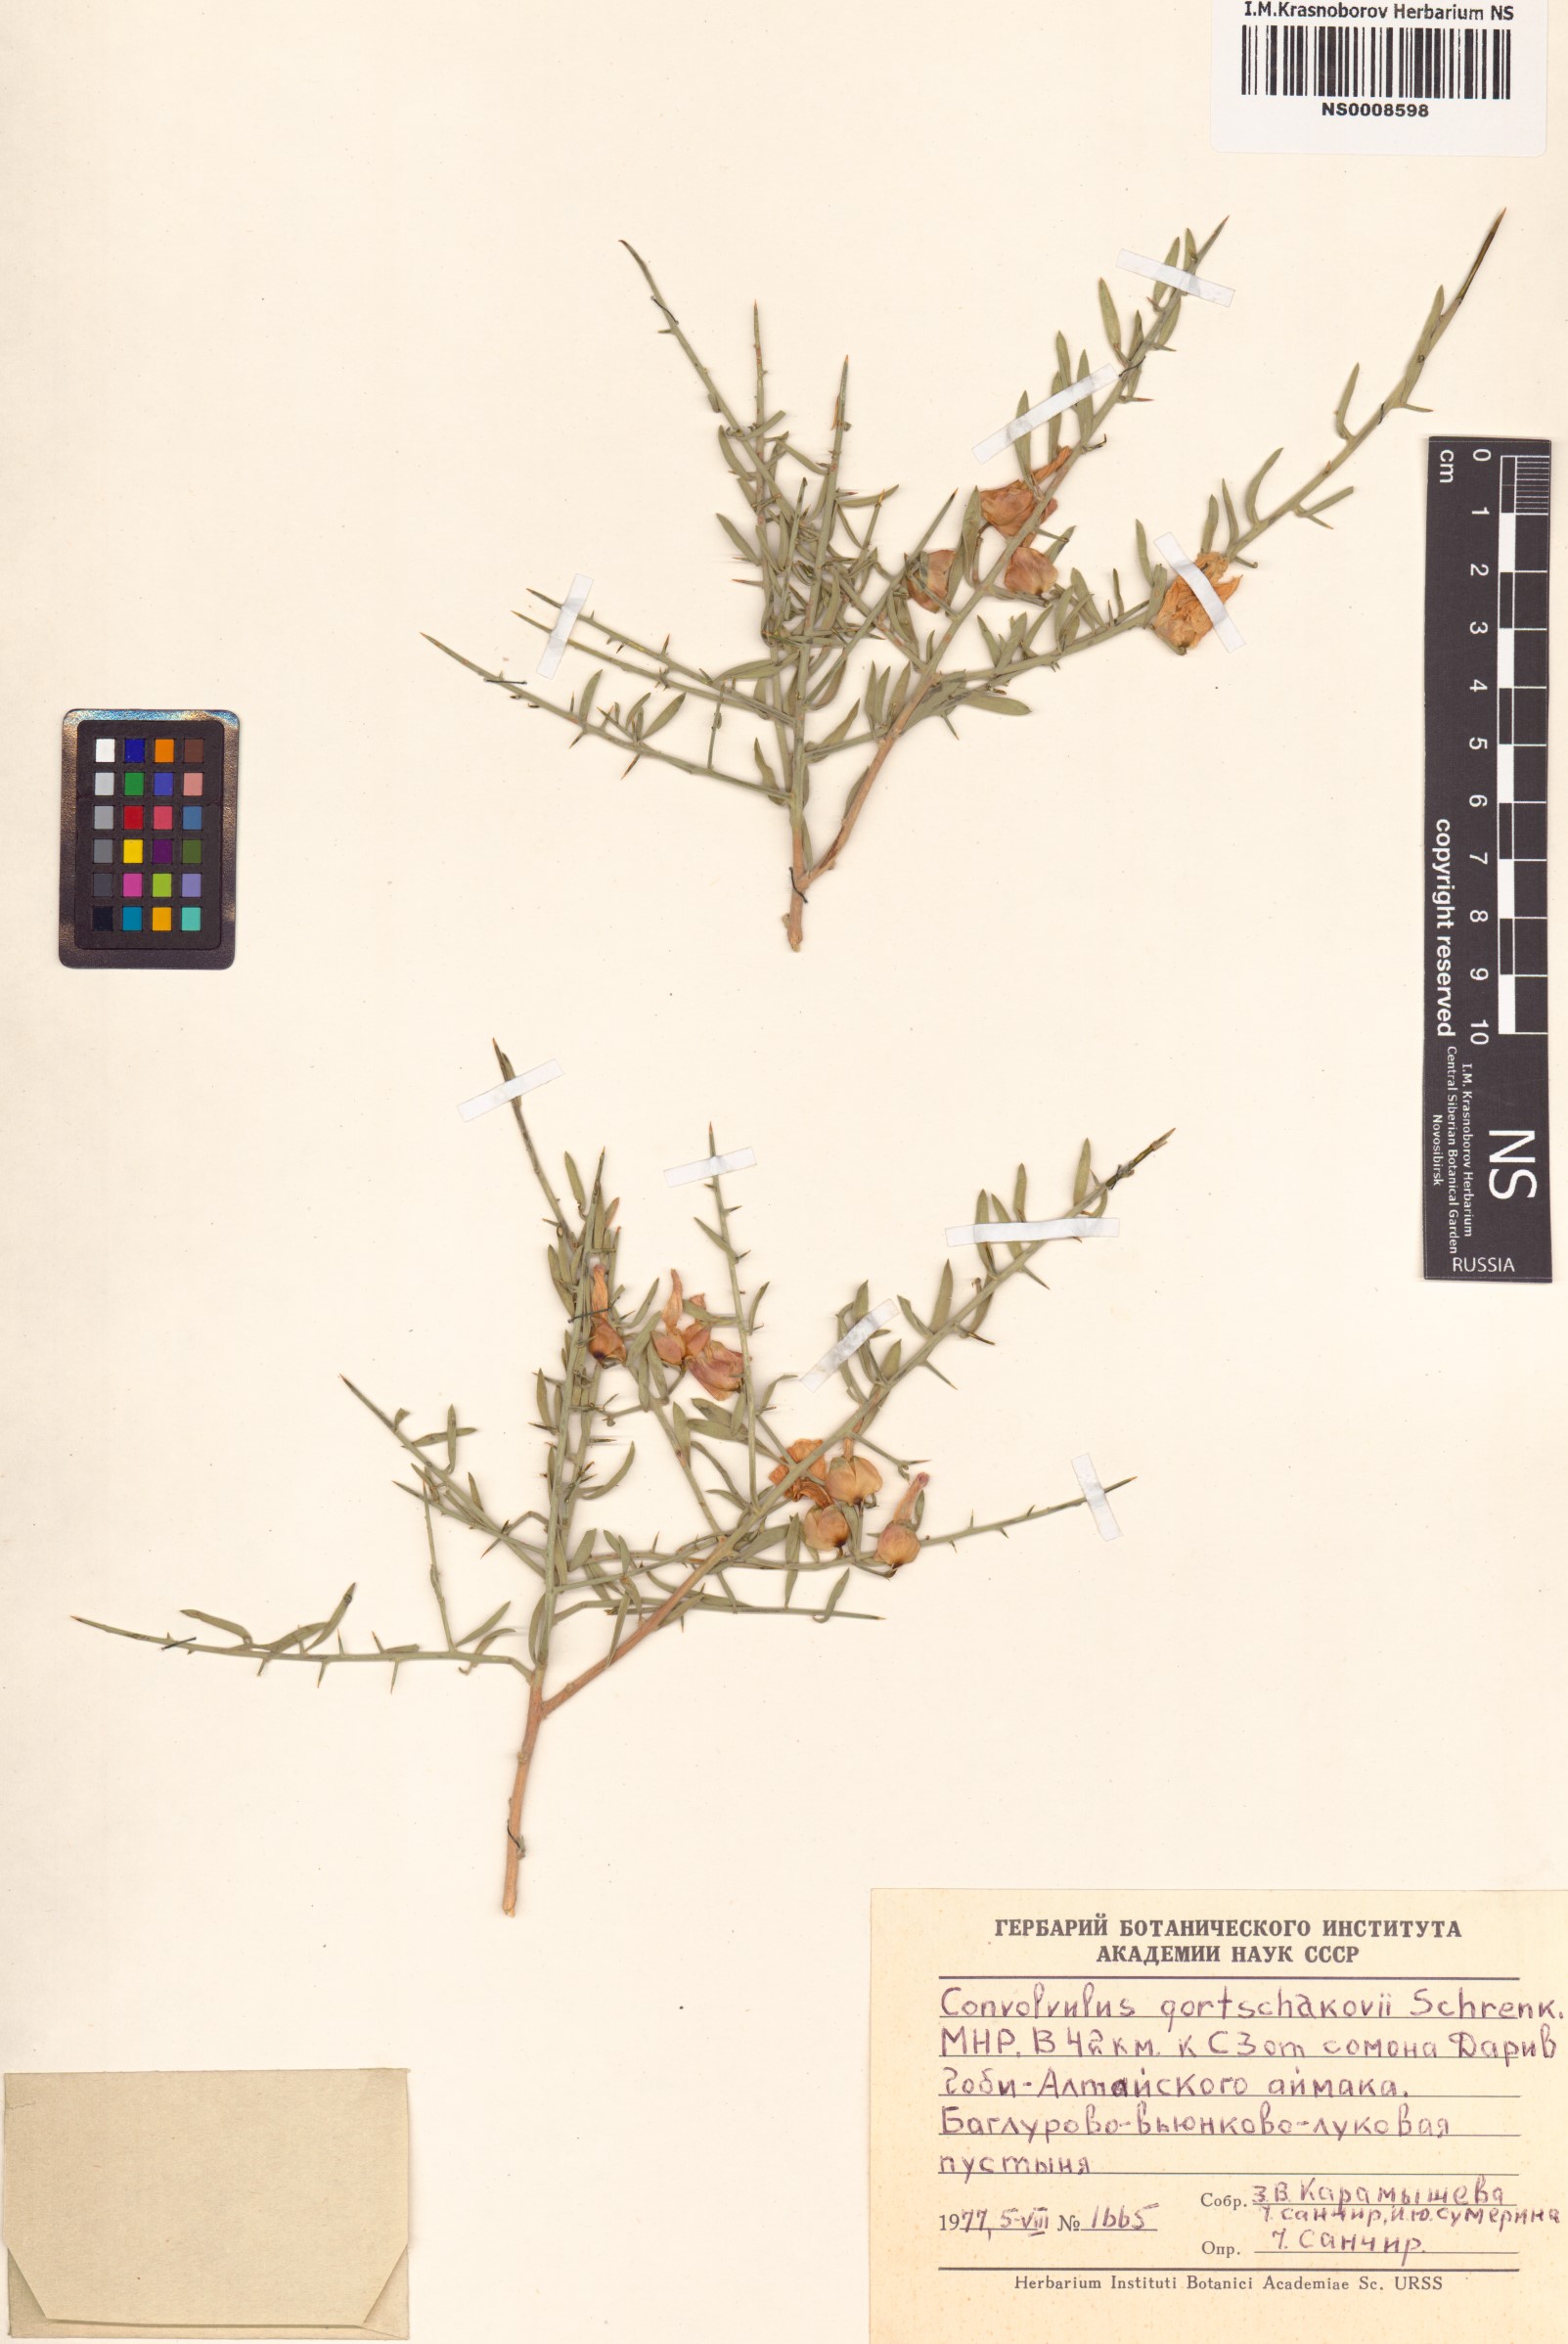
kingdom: Plantae
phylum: Tracheophyta
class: Magnoliopsida
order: Solanales
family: Convolvulaceae
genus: Convolvulus
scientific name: Convolvulus gortschakovii
